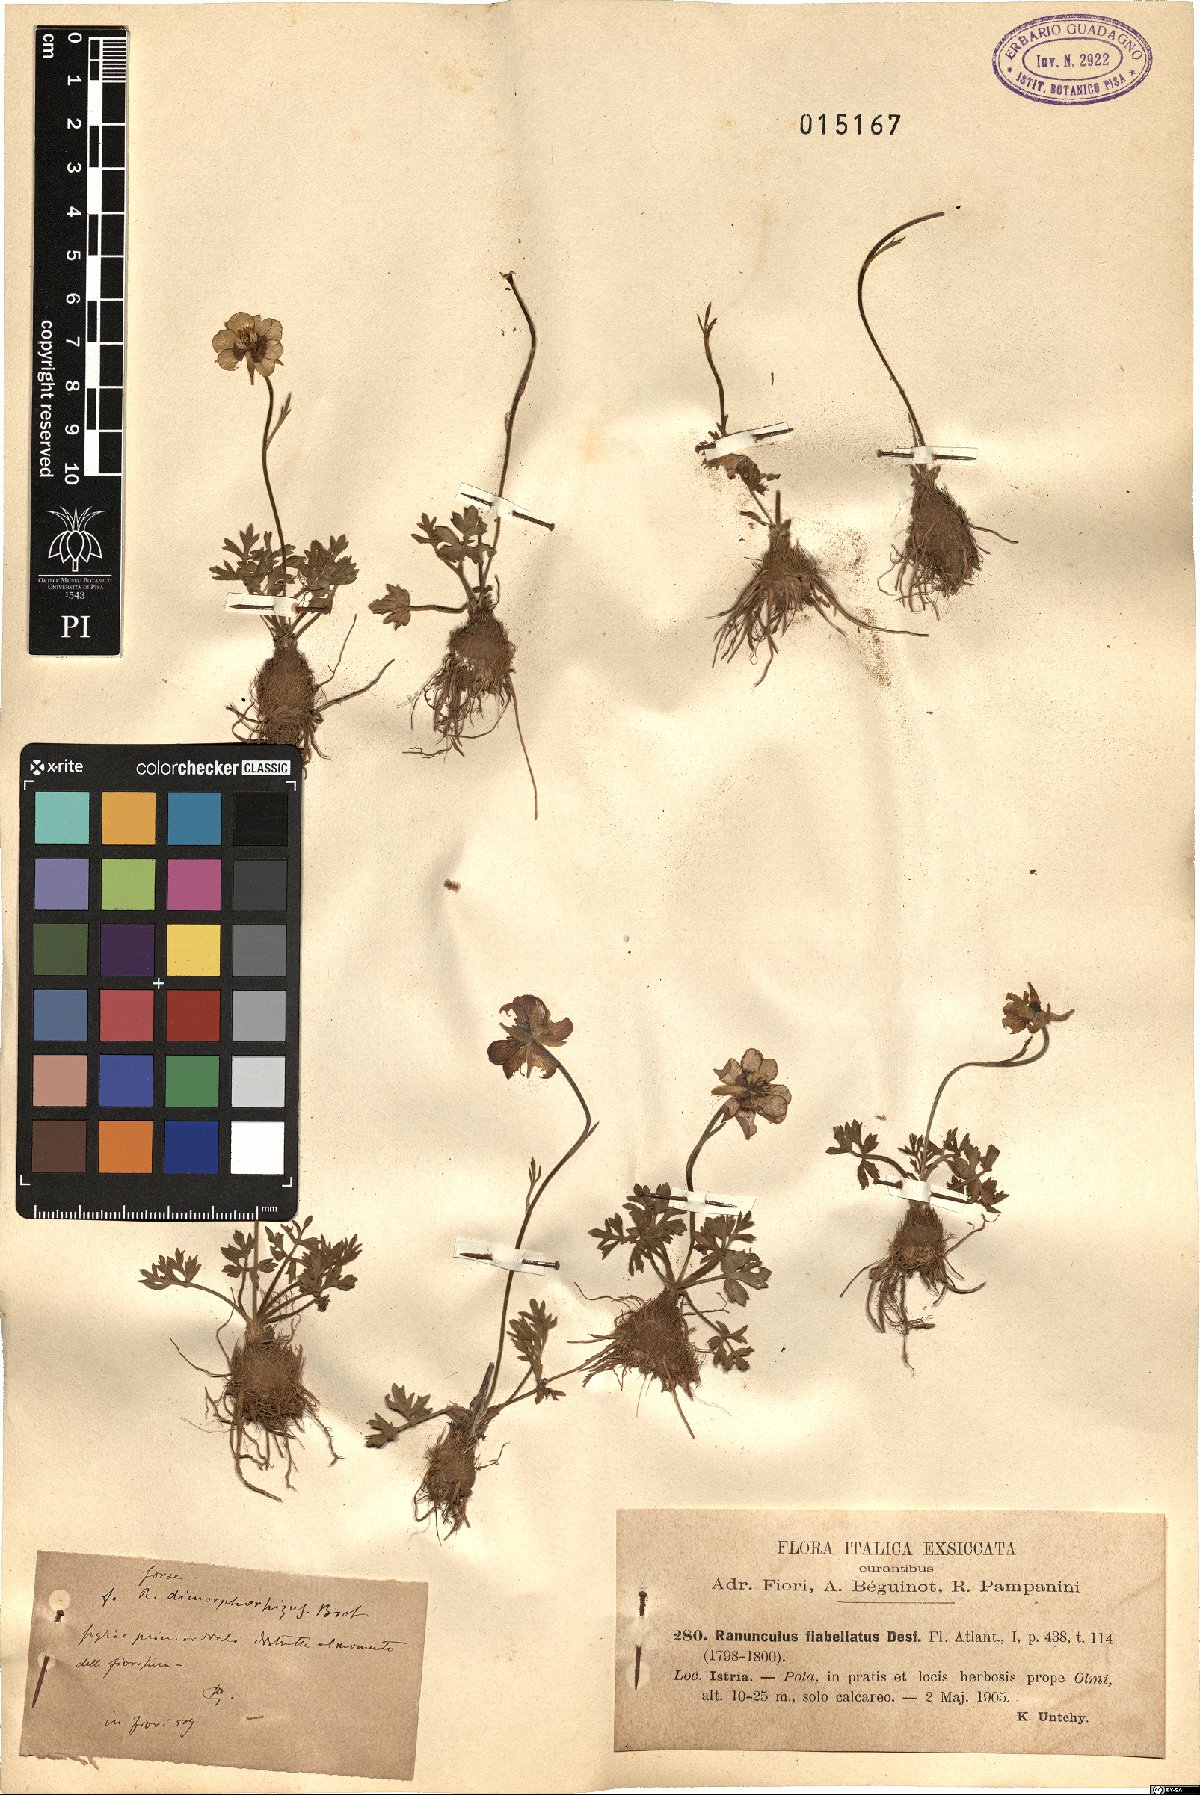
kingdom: Plantae
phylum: Tracheophyta
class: Magnoliopsida
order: Ranunculales
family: Ranunculaceae
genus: Ranunculus
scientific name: Ranunculus paludosus
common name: Jersey buttercup
